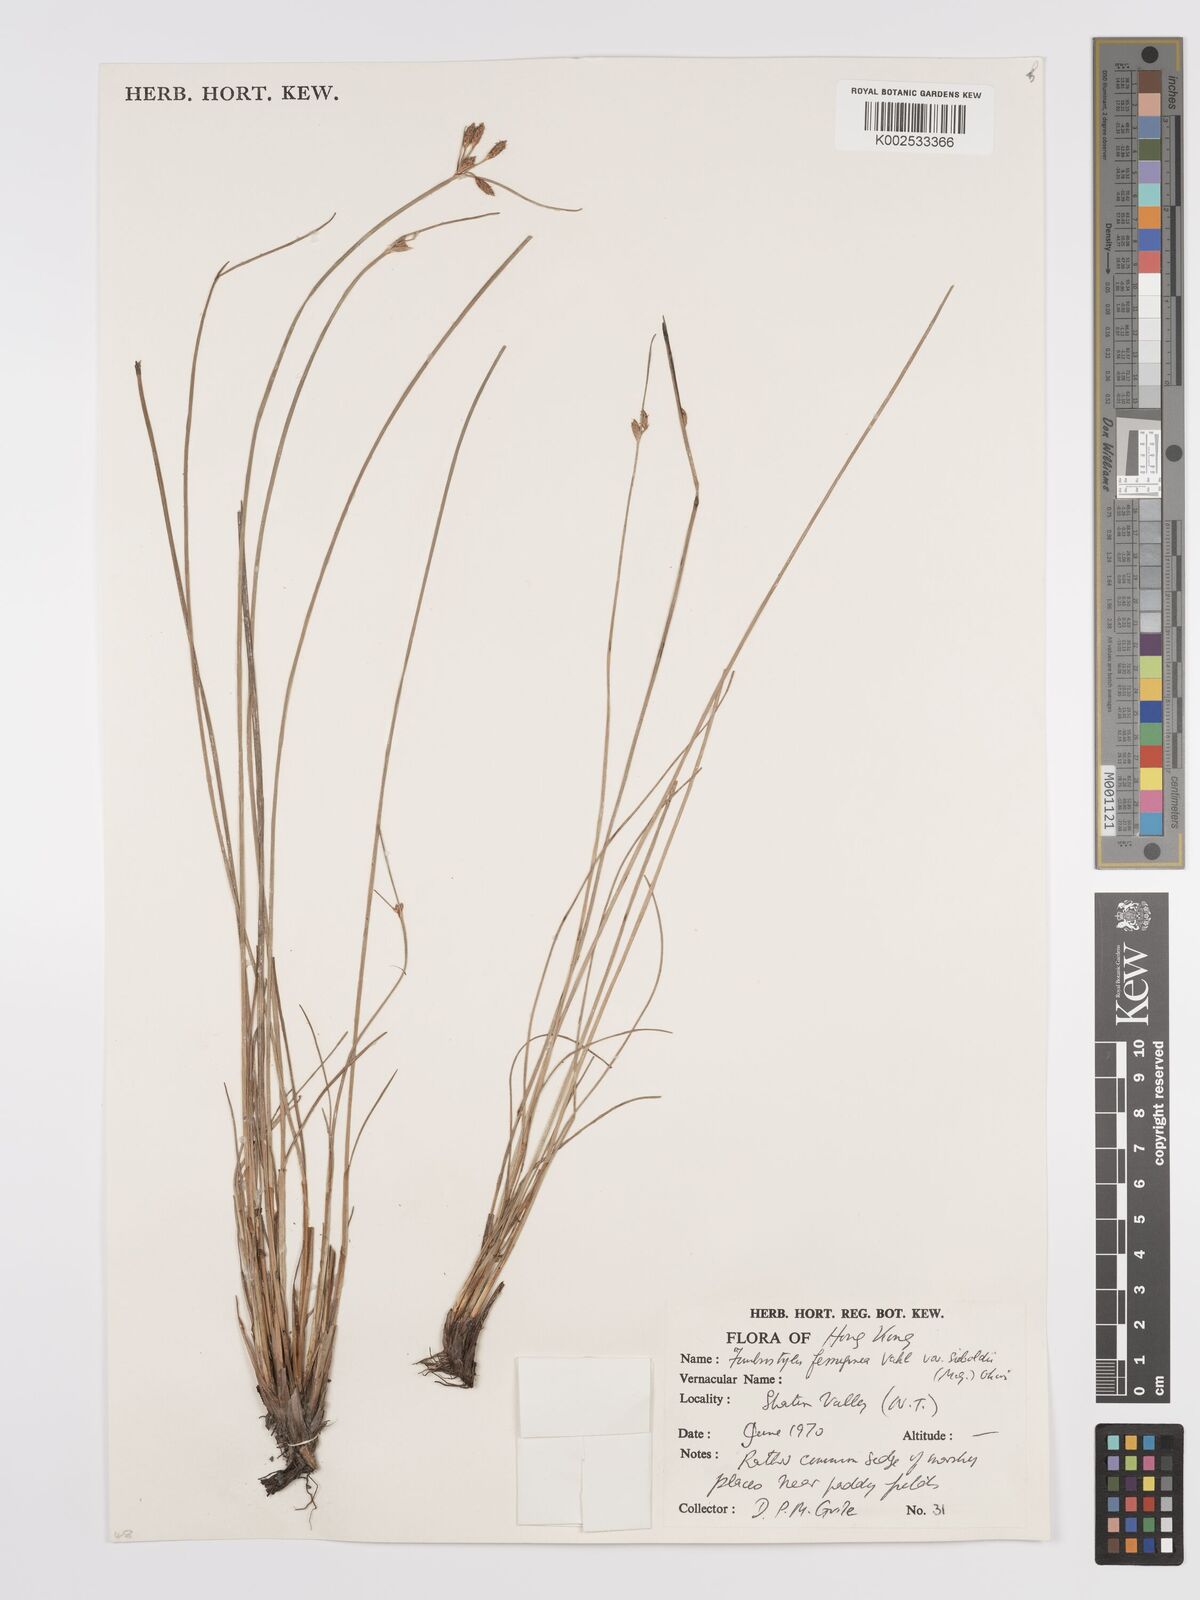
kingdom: Plantae
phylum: Tracheophyta
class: Liliopsida
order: Poales
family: Cyperaceae
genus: Fimbristylis
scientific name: Fimbristylis ferruginea
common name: West indian fimbry
